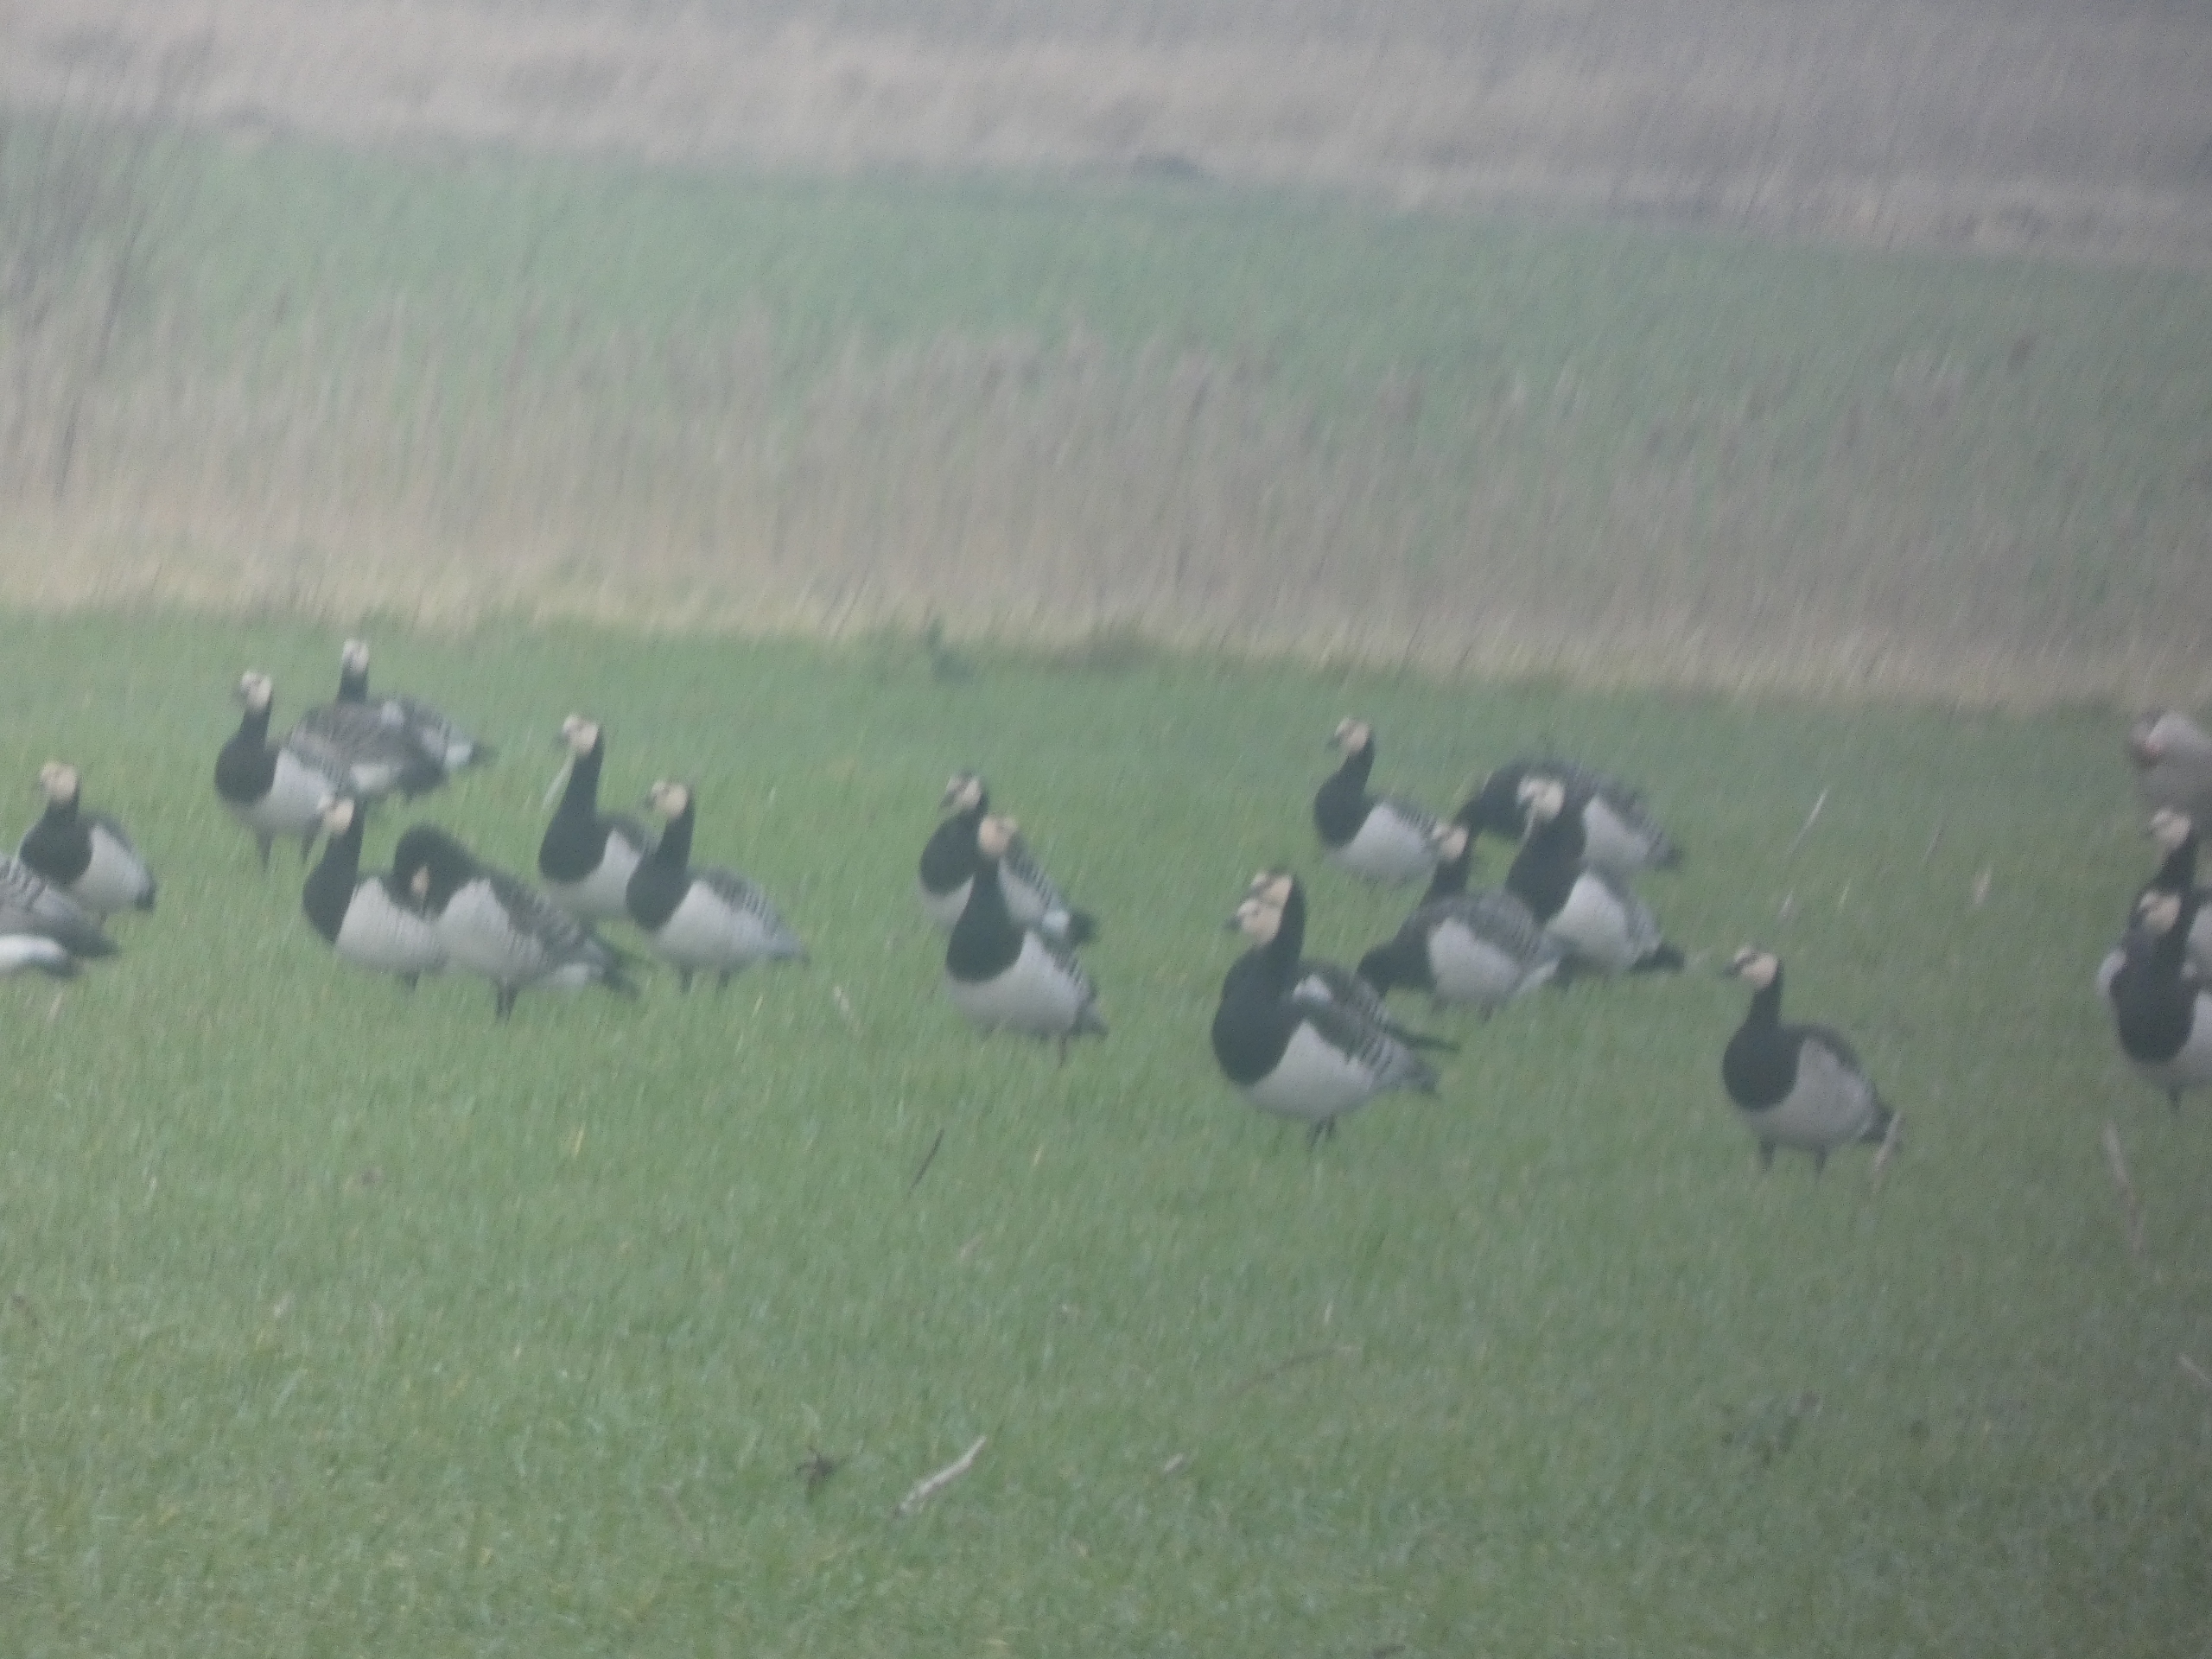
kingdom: Animalia
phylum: Chordata
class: Aves
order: Anseriformes
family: Anatidae
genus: Branta
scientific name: Branta leucopsis
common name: Bramgås
